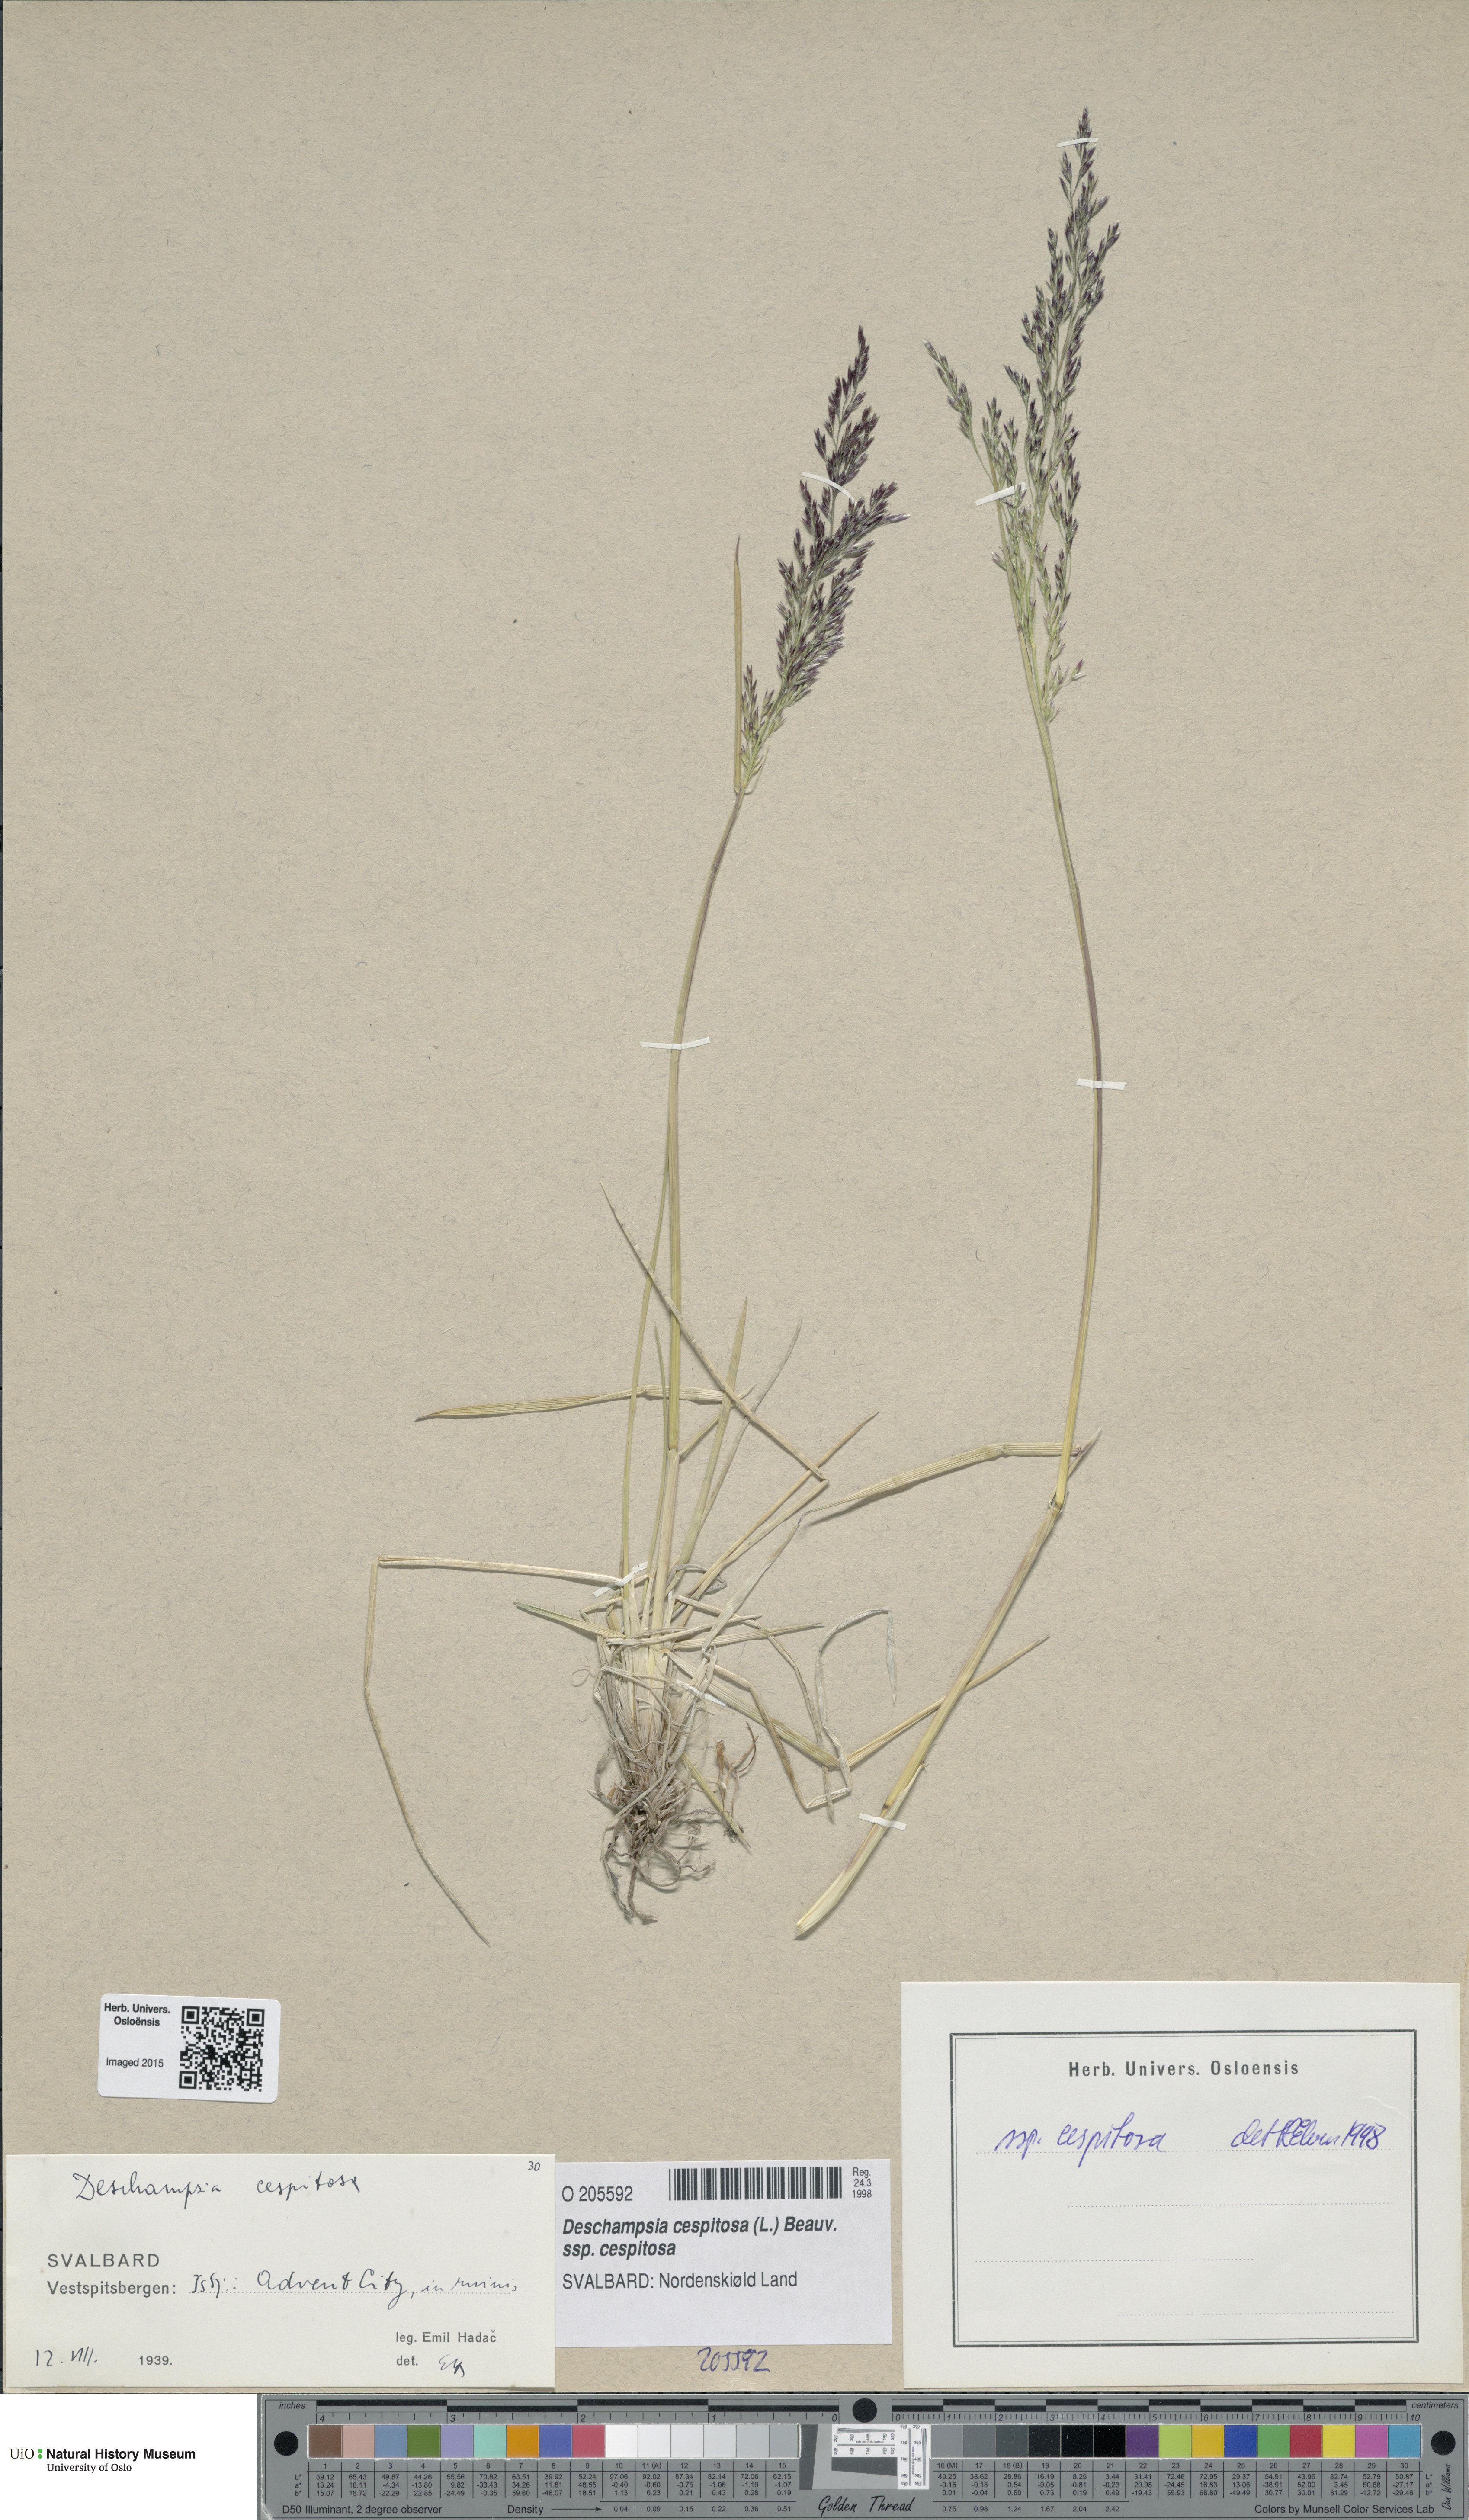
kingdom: Plantae
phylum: Tracheophyta
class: Liliopsida
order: Poales
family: Poaceae
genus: Deschampsia
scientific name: Deschampsia cespitosa
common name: Tufted hair-grass
